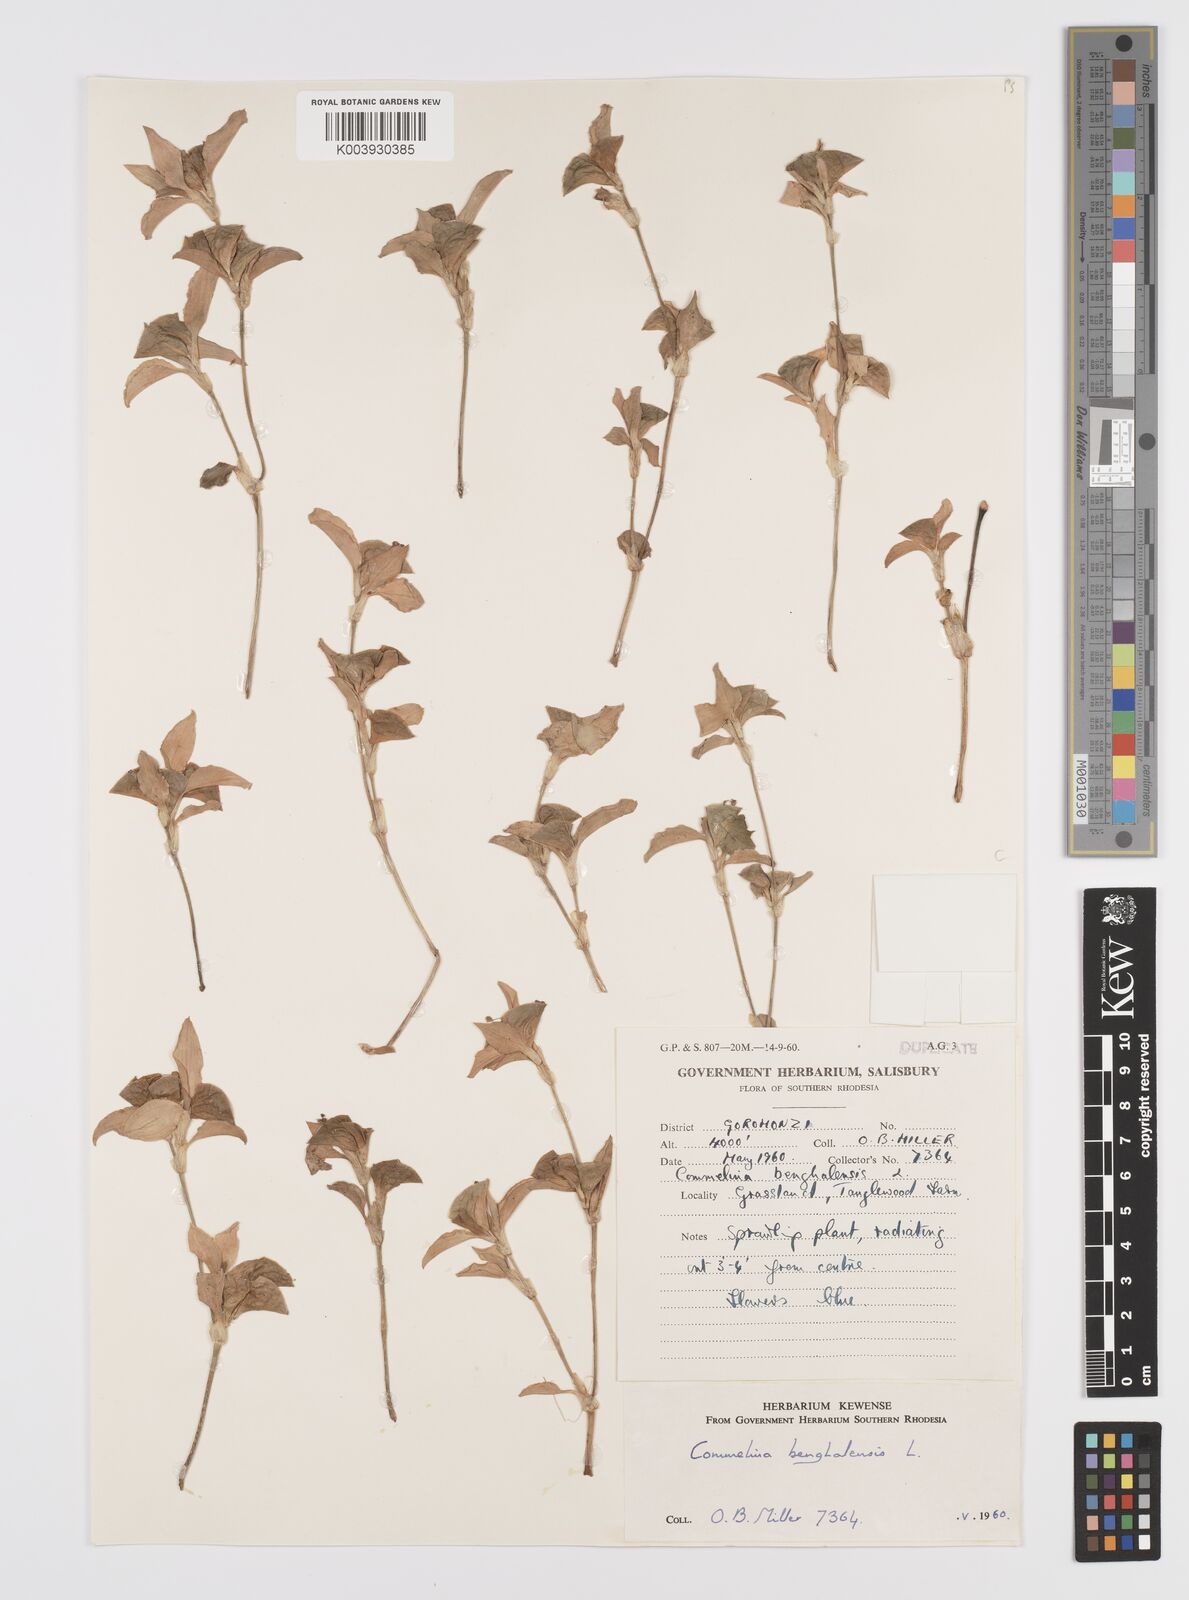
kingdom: Plantae
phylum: Tracheophyta
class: Liliopsida
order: Commelinales
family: Commelinaceae
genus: Commelina
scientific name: Commelina benghalensis
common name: Jio
